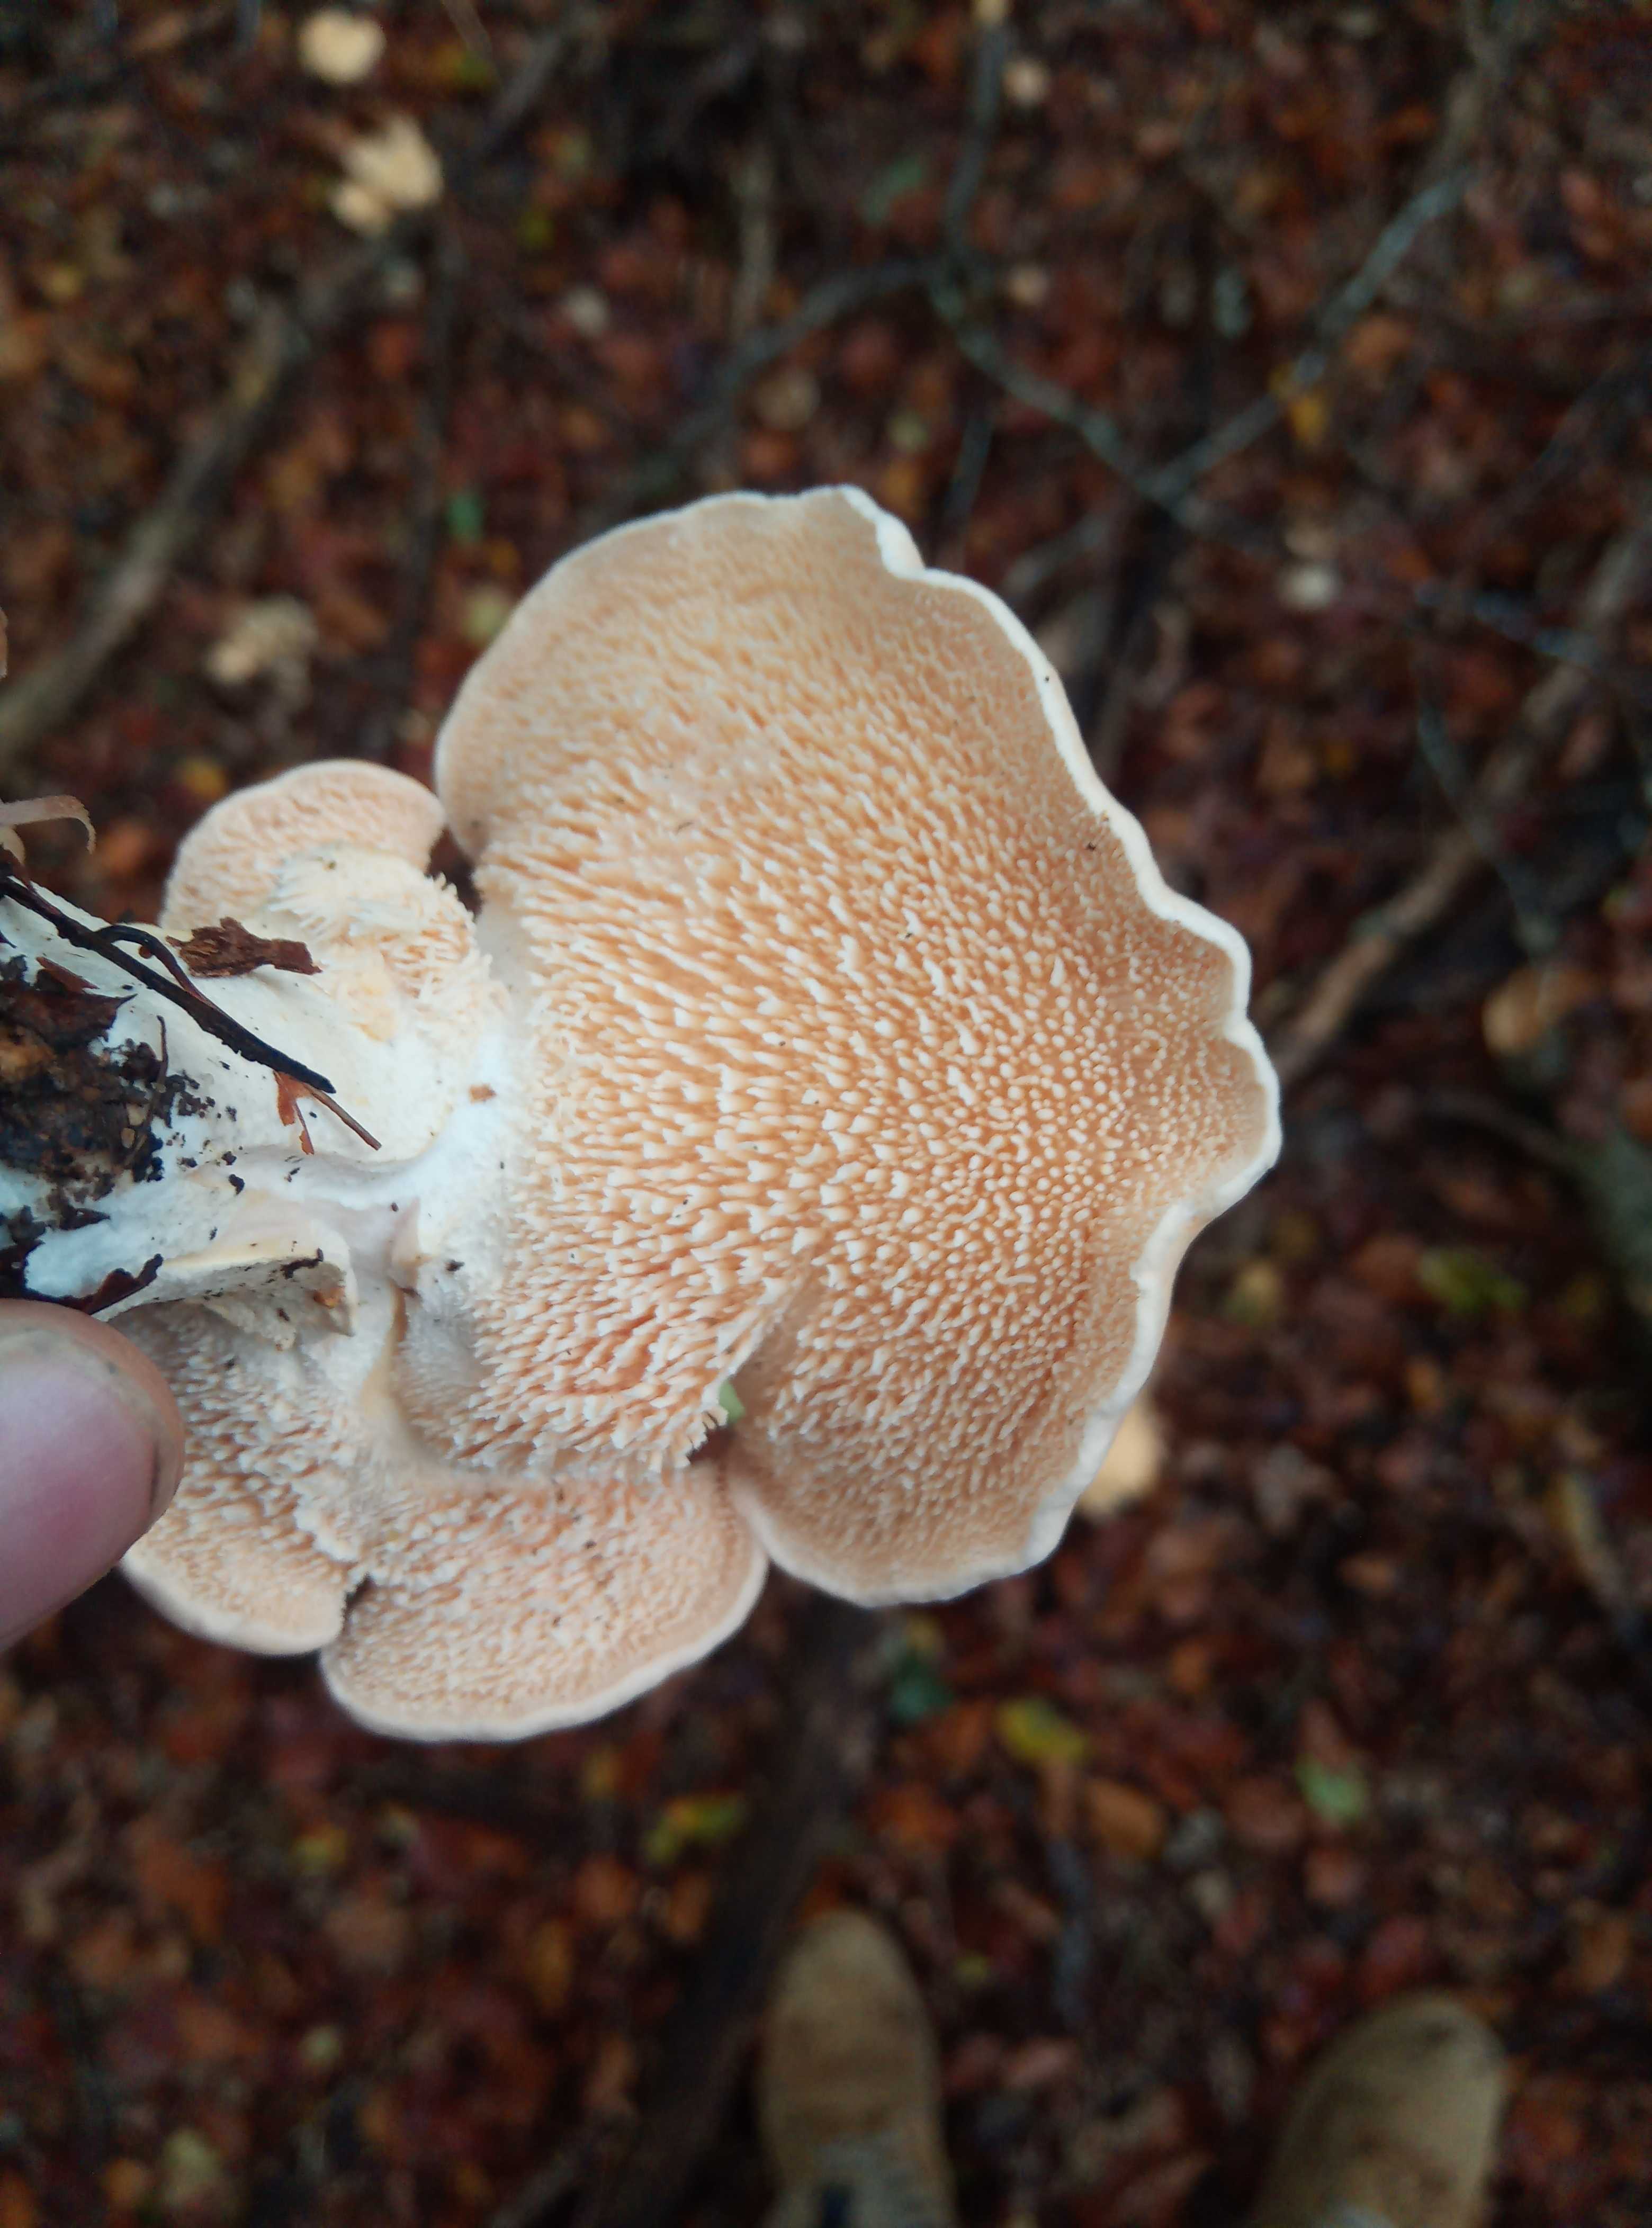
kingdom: Fungi
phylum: Basidiomycota
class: Agaricomycetes
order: Cantharellales
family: Hydnaceae
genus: Hydnum
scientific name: Hydnum
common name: pigsvamp
